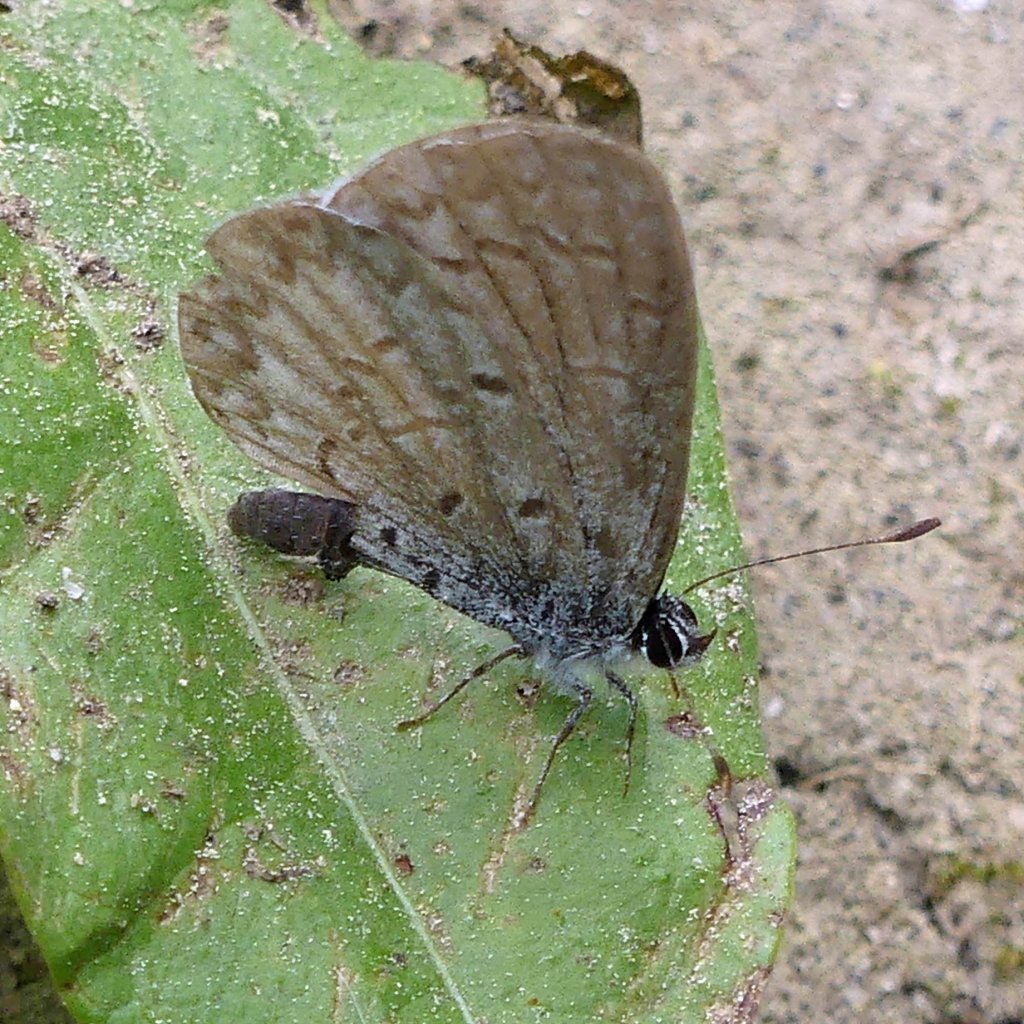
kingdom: Animalia
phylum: Arthropoda
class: Insecta
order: Lepidoptera
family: Lycaenidae
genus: Celastrina
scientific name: Celastrina
